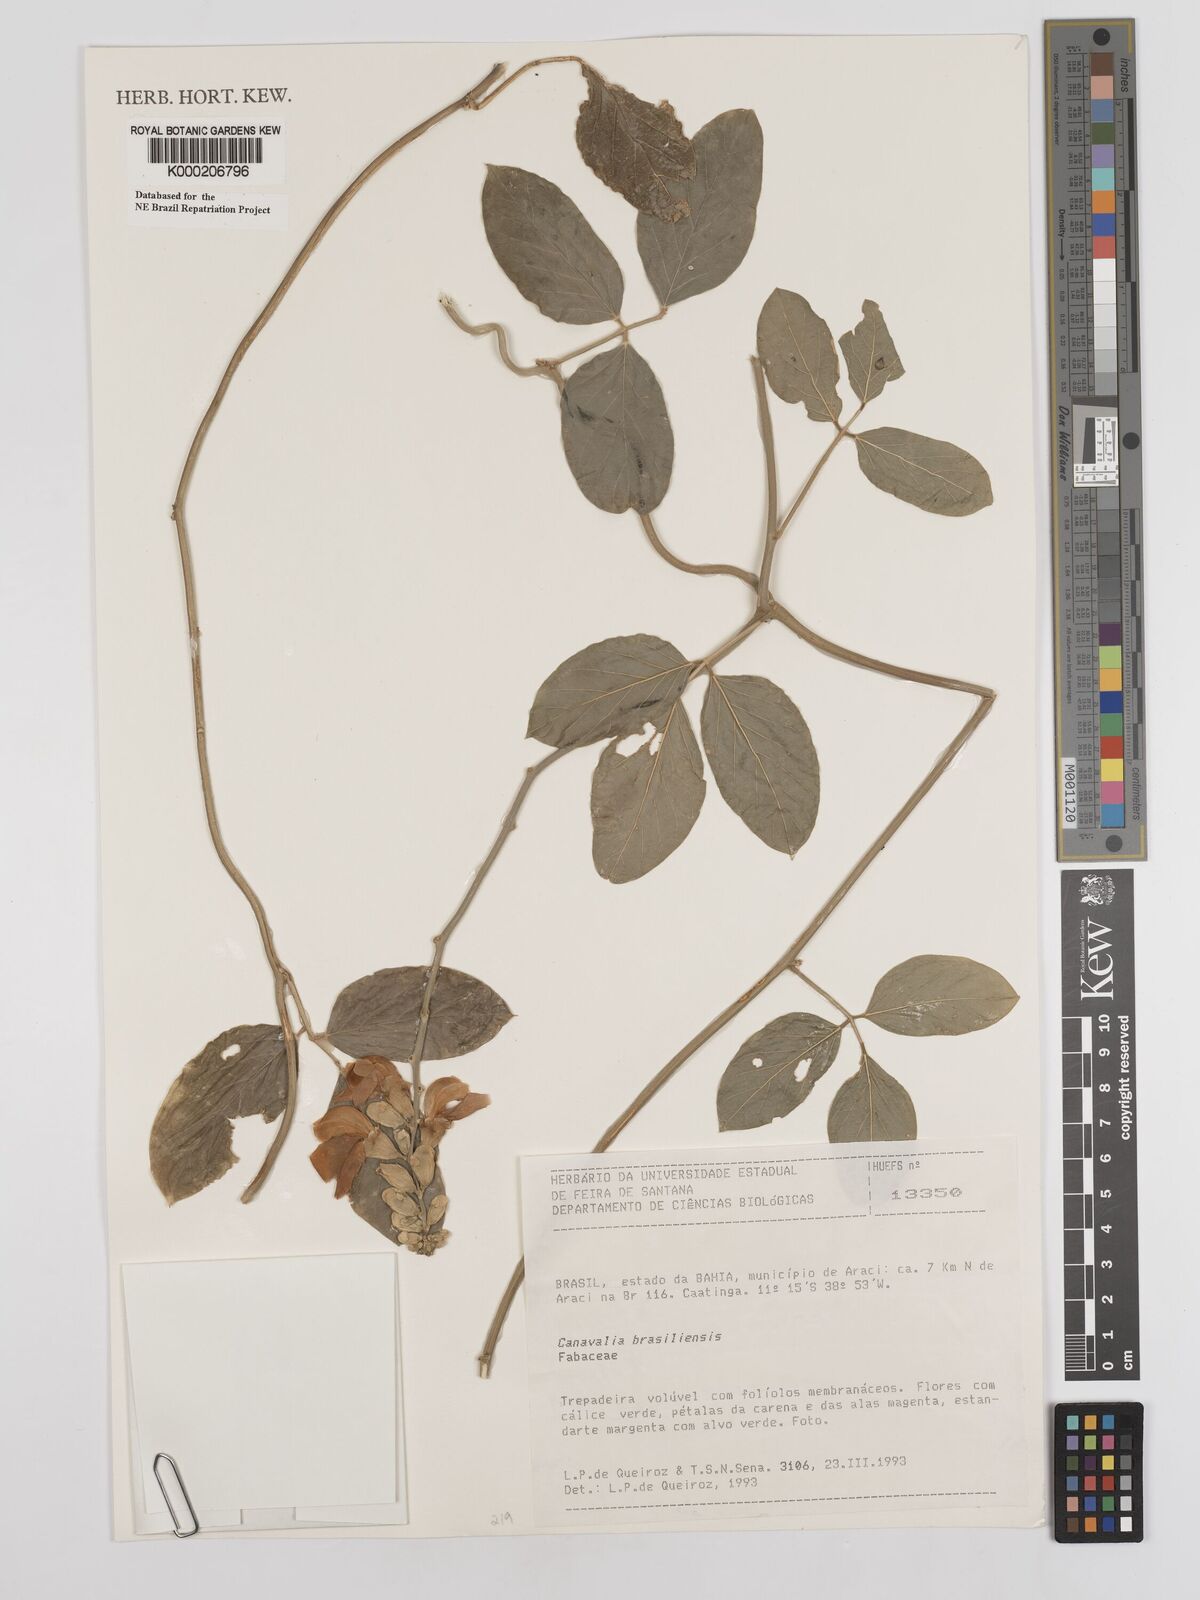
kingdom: Plantae
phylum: Tracheophyta
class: Magnoliopsida
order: Fabales
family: Fabaceae
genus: Canavalia
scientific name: Canavalia brasiliensis
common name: Barbicou-bean
